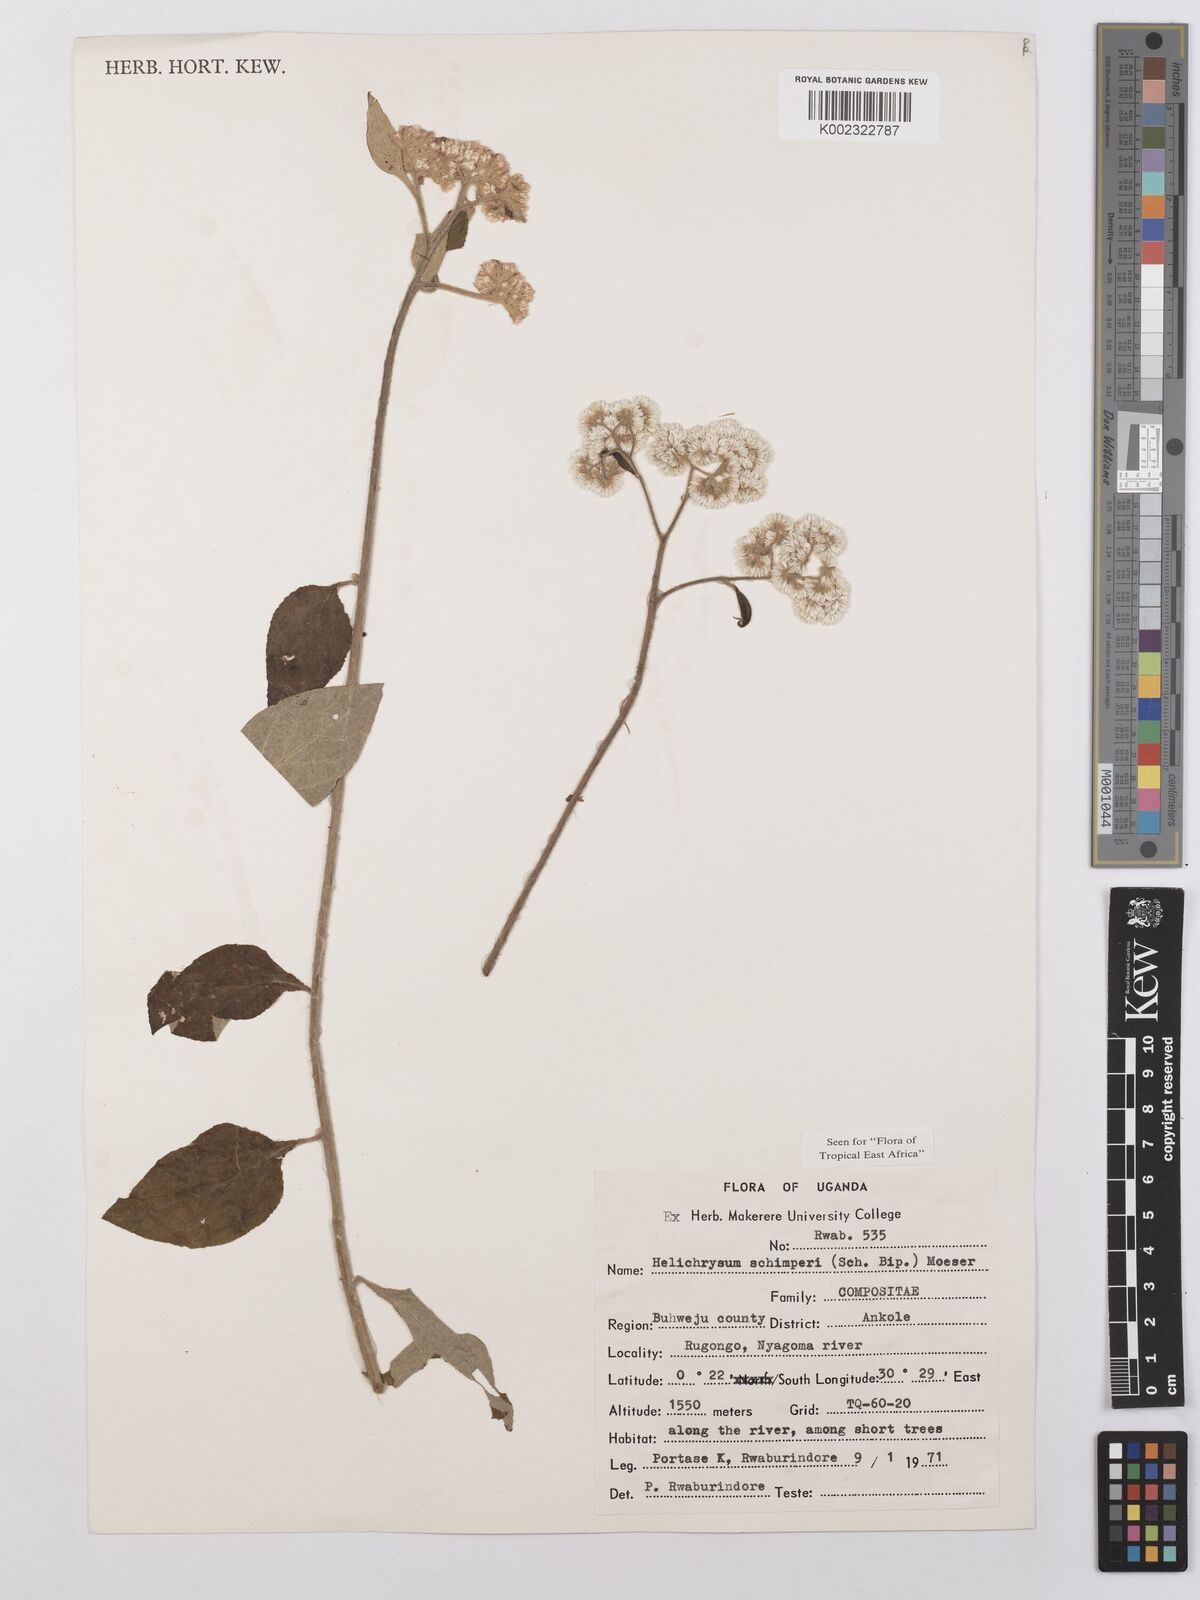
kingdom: Plantae
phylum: Tracheophyta
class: Magnoliopsida
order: Asterales
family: Asteraceae
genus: Helichrysum
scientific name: Helichrysum schimperi
